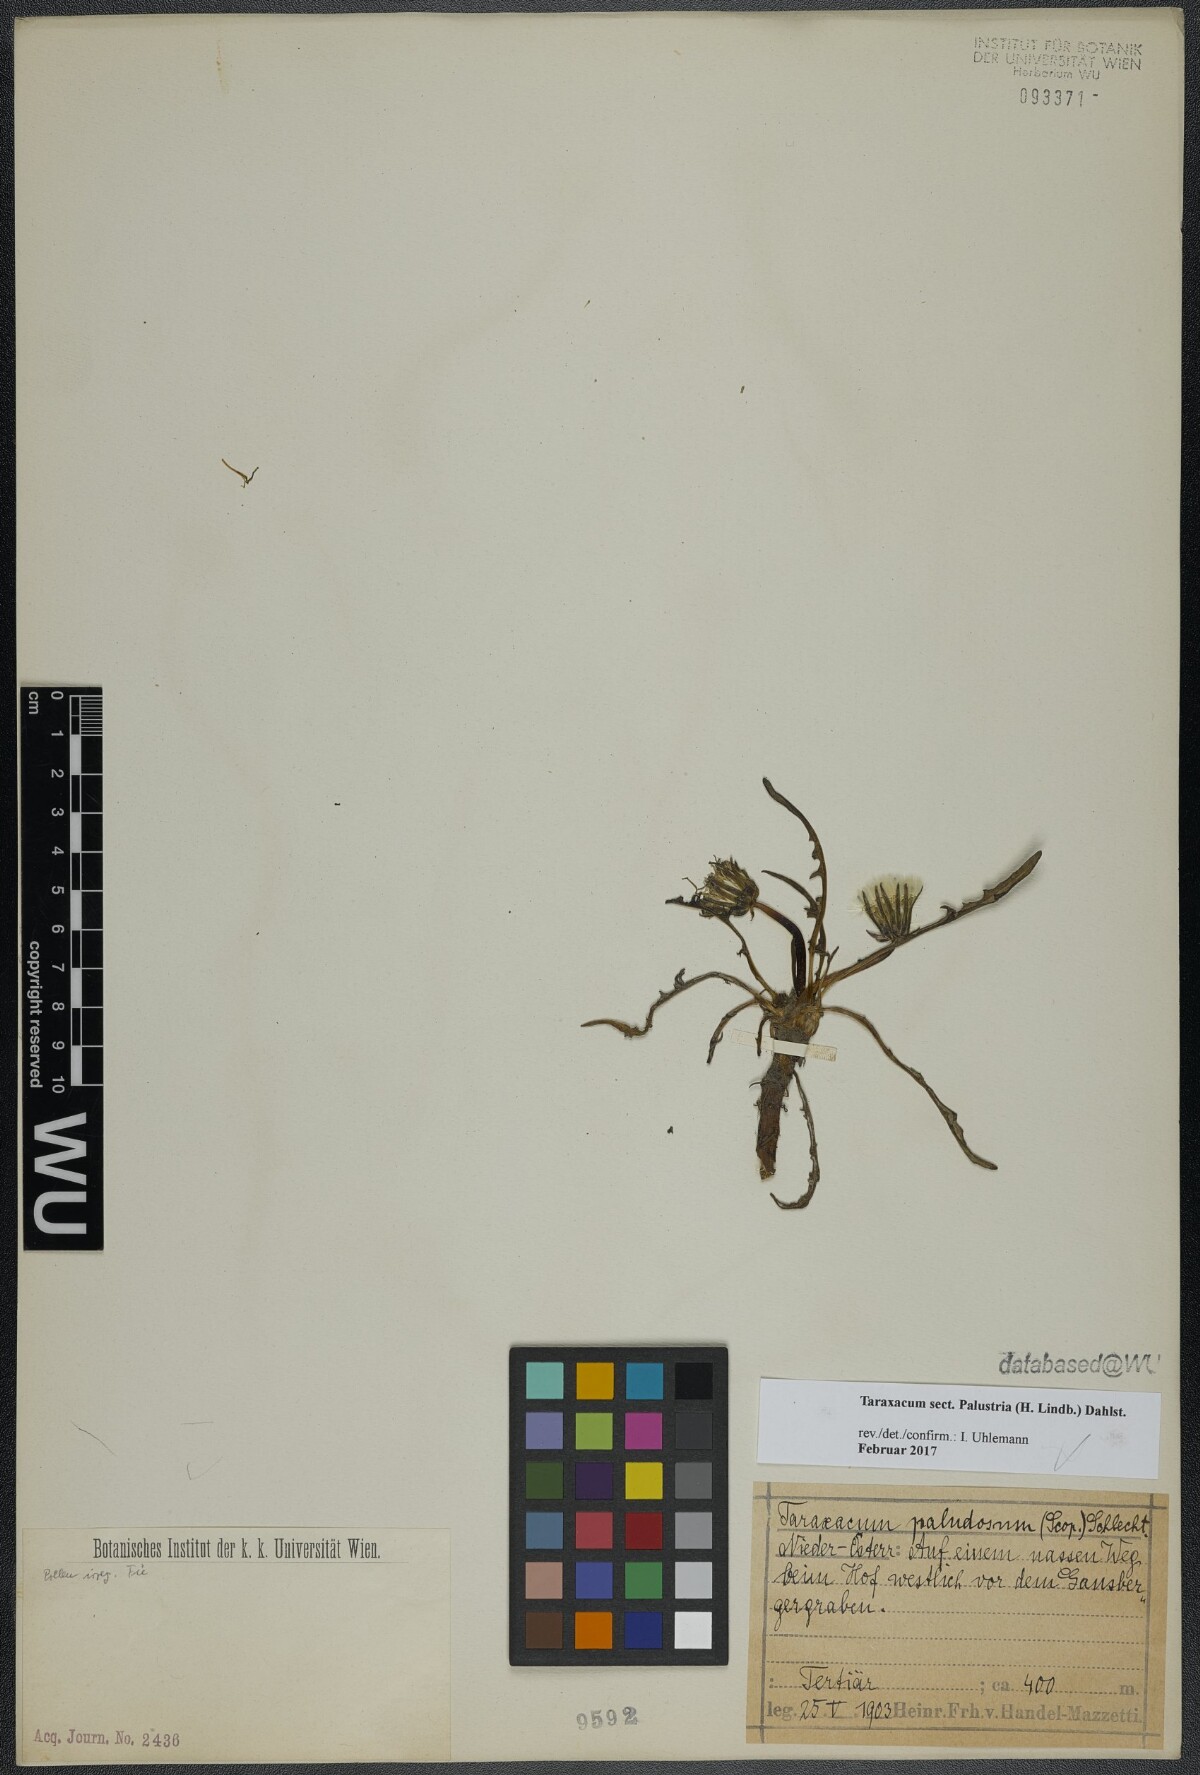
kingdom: Plantae
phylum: Tracheophyta
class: Magnoliopsida
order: Asterales
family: Asteraceae
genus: Taraxacum
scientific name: Taraxacum
